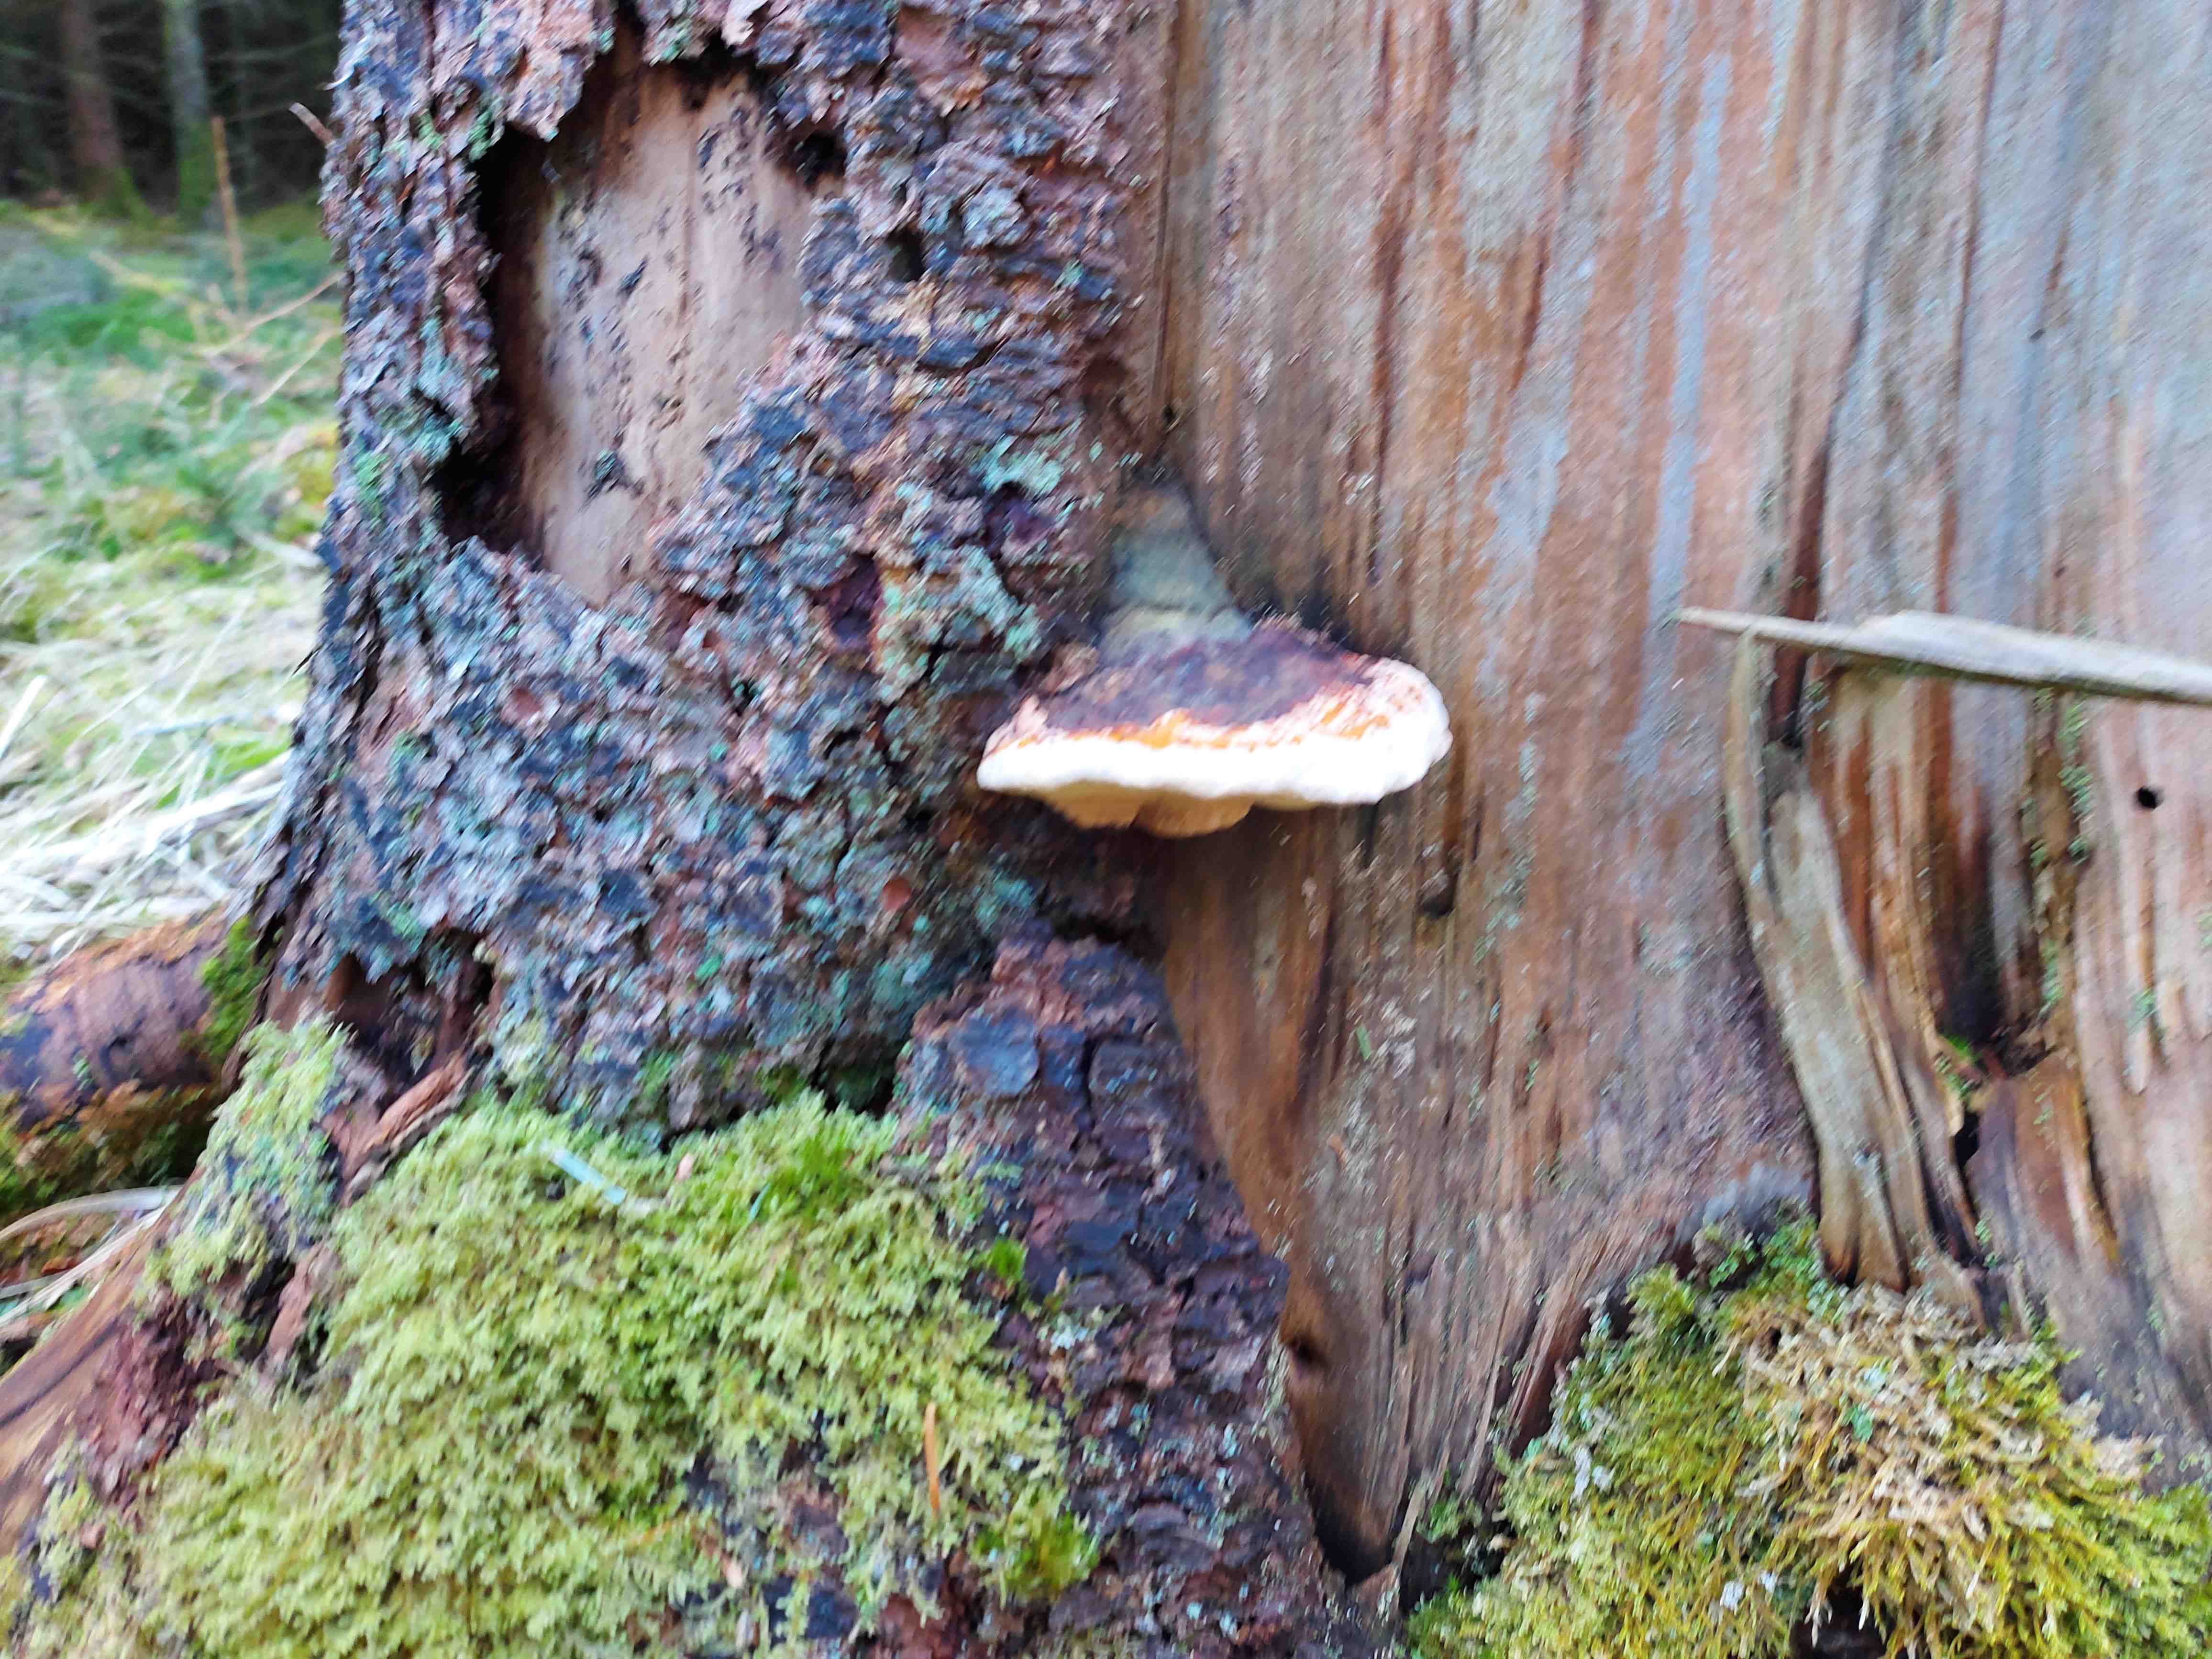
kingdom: Fungi
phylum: Basidiomycota
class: Agaricomycetes
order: Polyporales
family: Fomitopsidaceae
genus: Fomitopsis
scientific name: Fomitopsis pinicola
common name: randbæltet hovporesvamp
